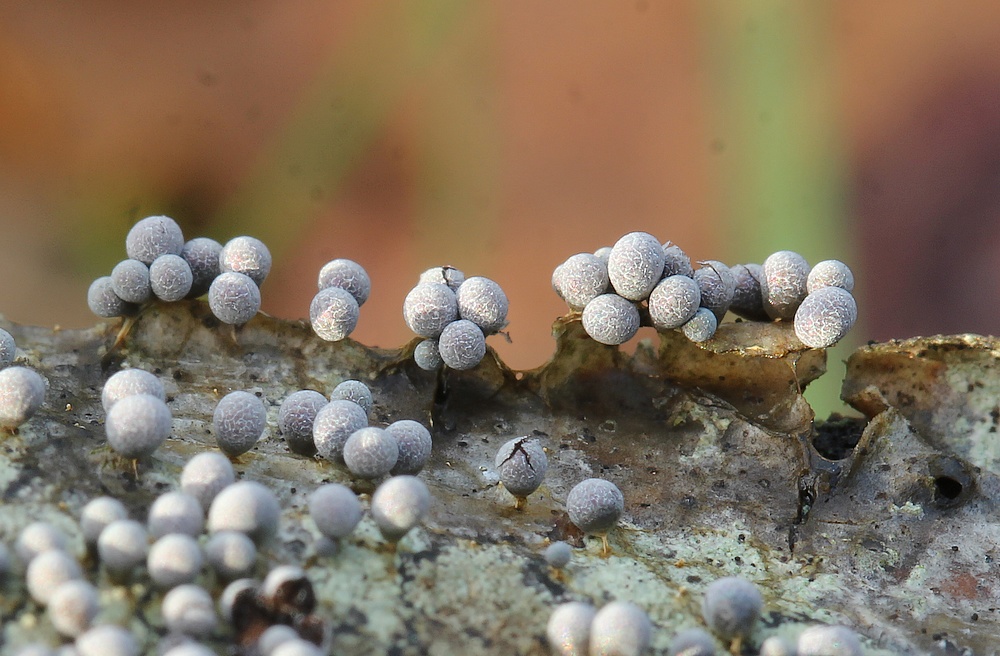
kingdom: Protozoa
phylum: Mycetozoa
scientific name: Mycetozoa
